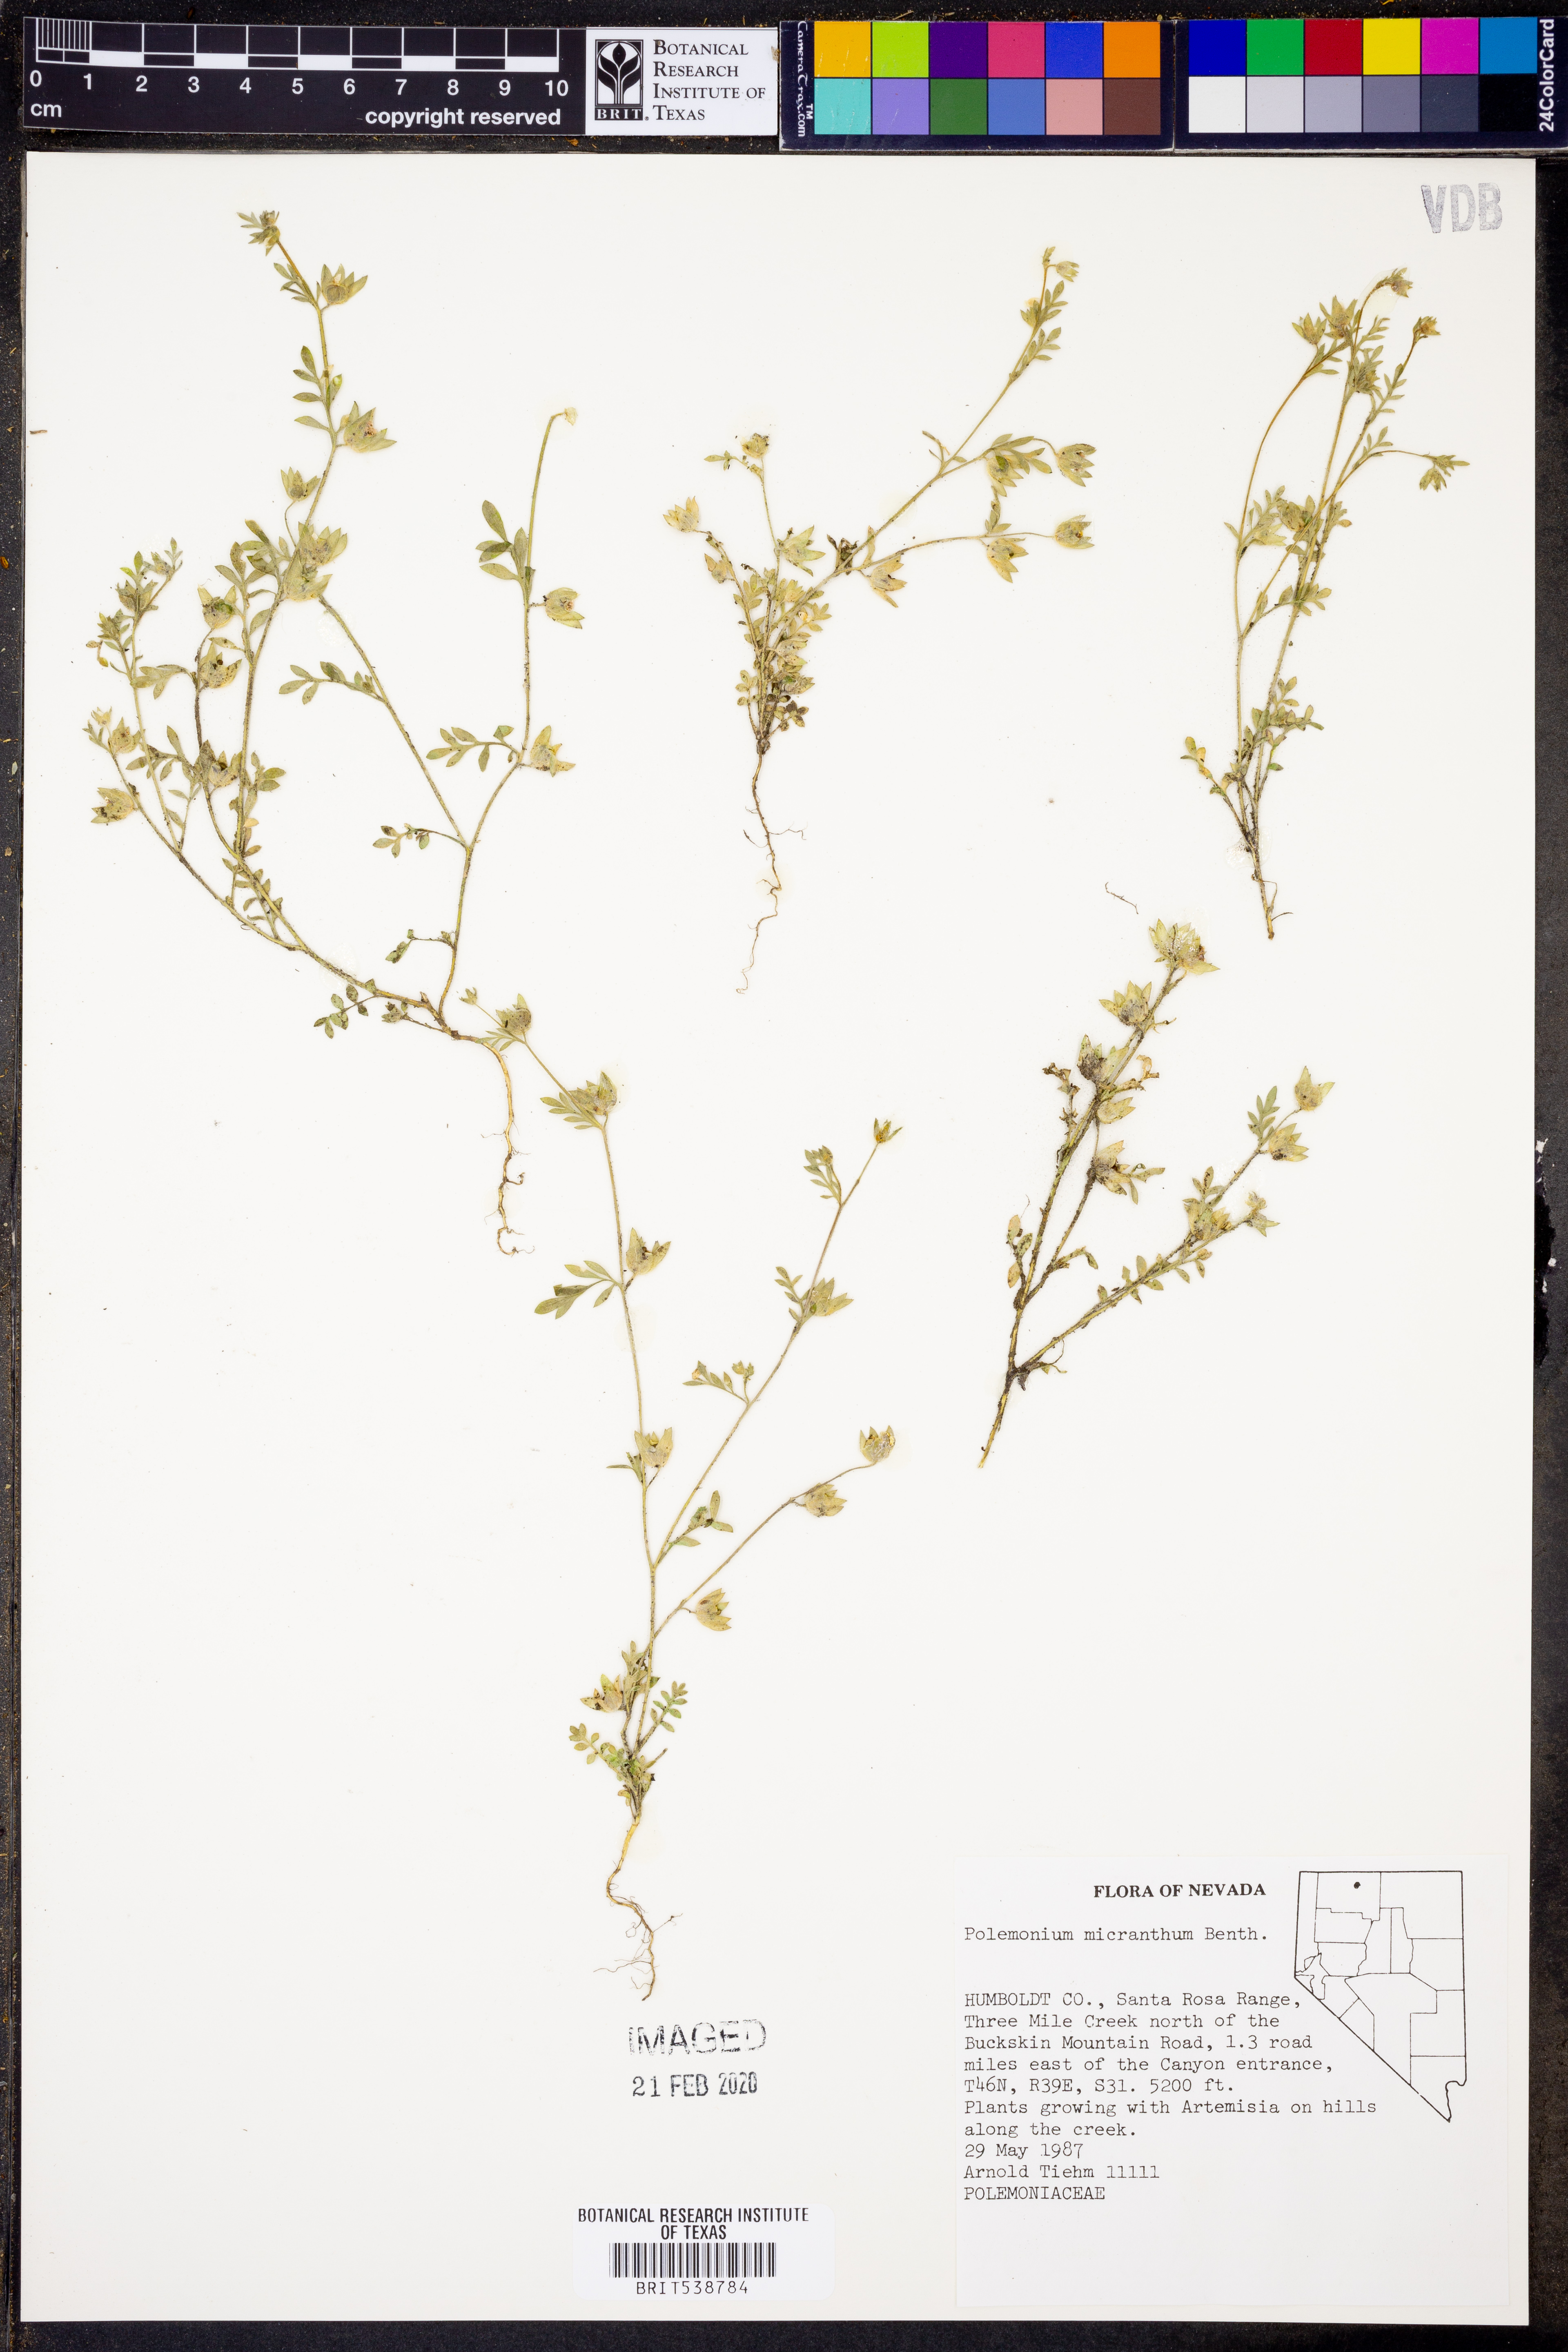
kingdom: Plantae
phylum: Tracheophyta
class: Magnoliopsida
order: Ericales
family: Polemoniaceae
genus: Polemonium
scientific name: Polemonium micranthum
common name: Annual jacob's-ladder
